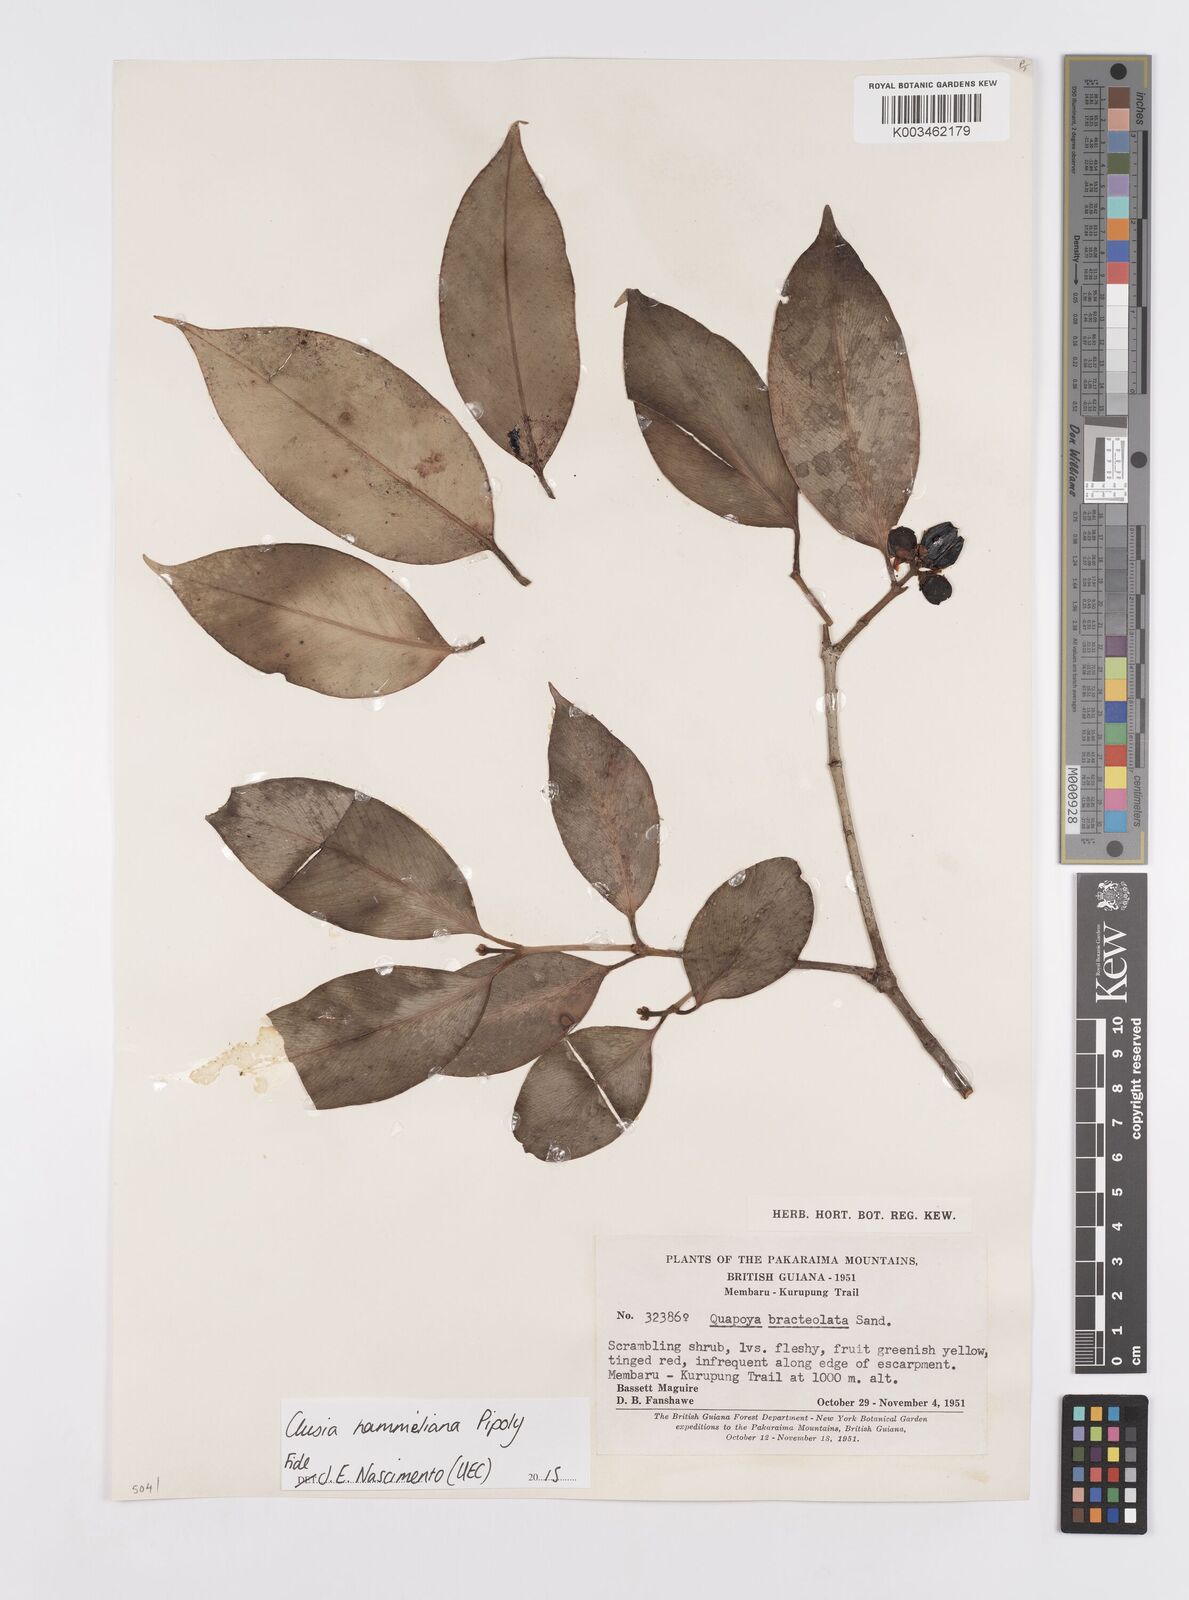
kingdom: Plantae
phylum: Tracheophyta
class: Magnoliopsida
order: Malpighiales
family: Clusiaceae
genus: Clusia
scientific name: Clusia hammeliana
